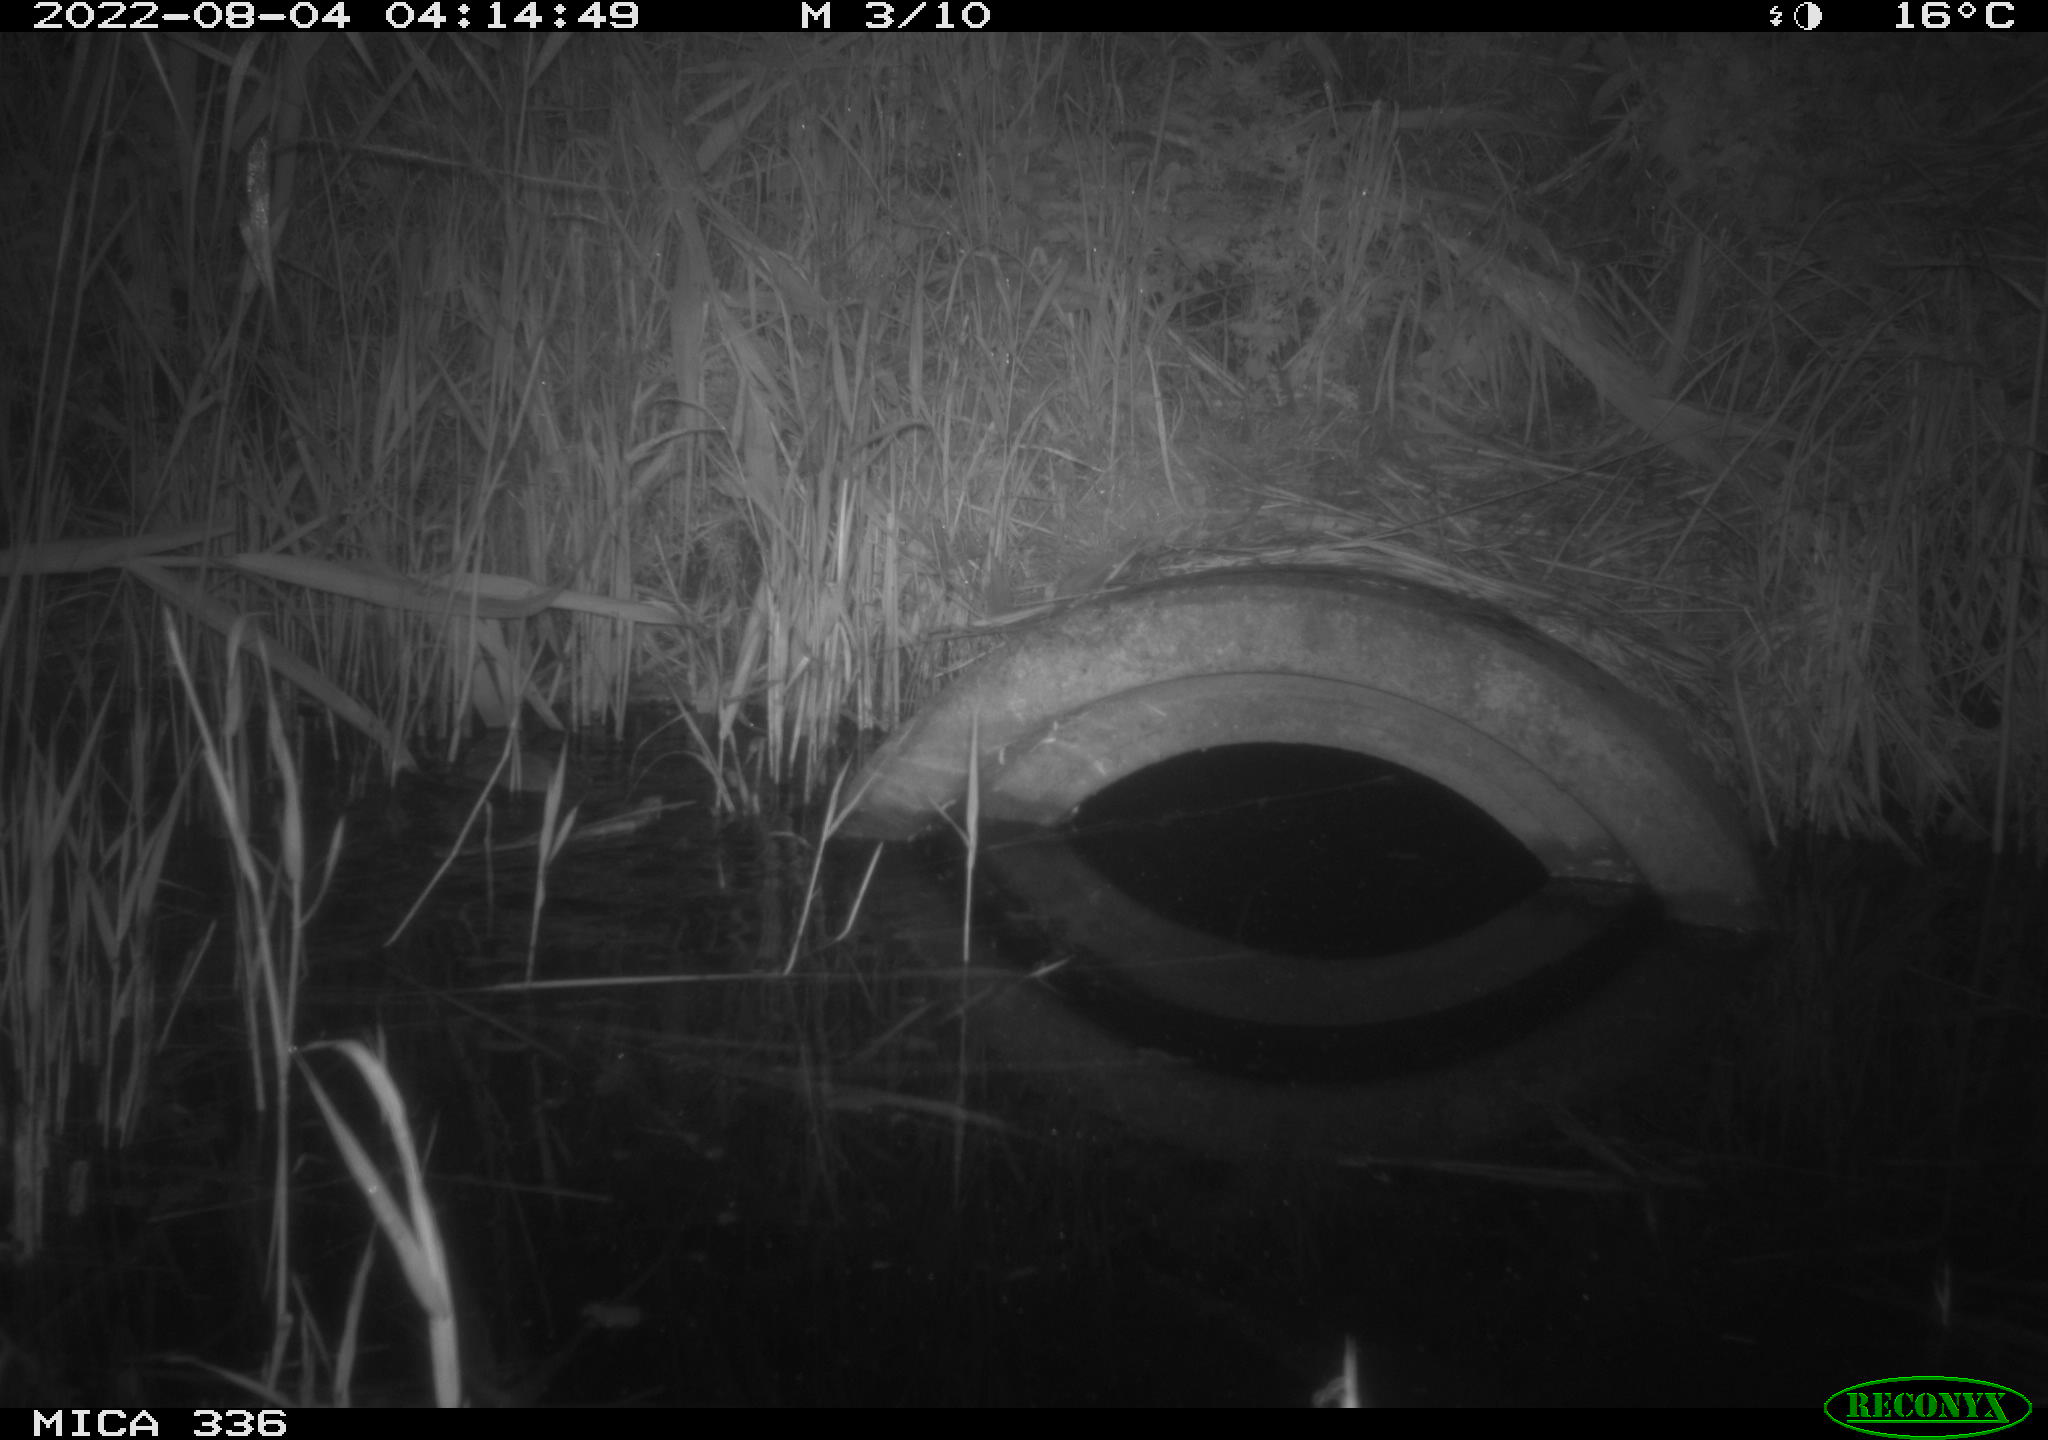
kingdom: Animalia
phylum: Chordata
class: Mammalia
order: Rodentia
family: Muridae
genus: Rattus
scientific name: Rattus norvegicus
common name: Brown rat
